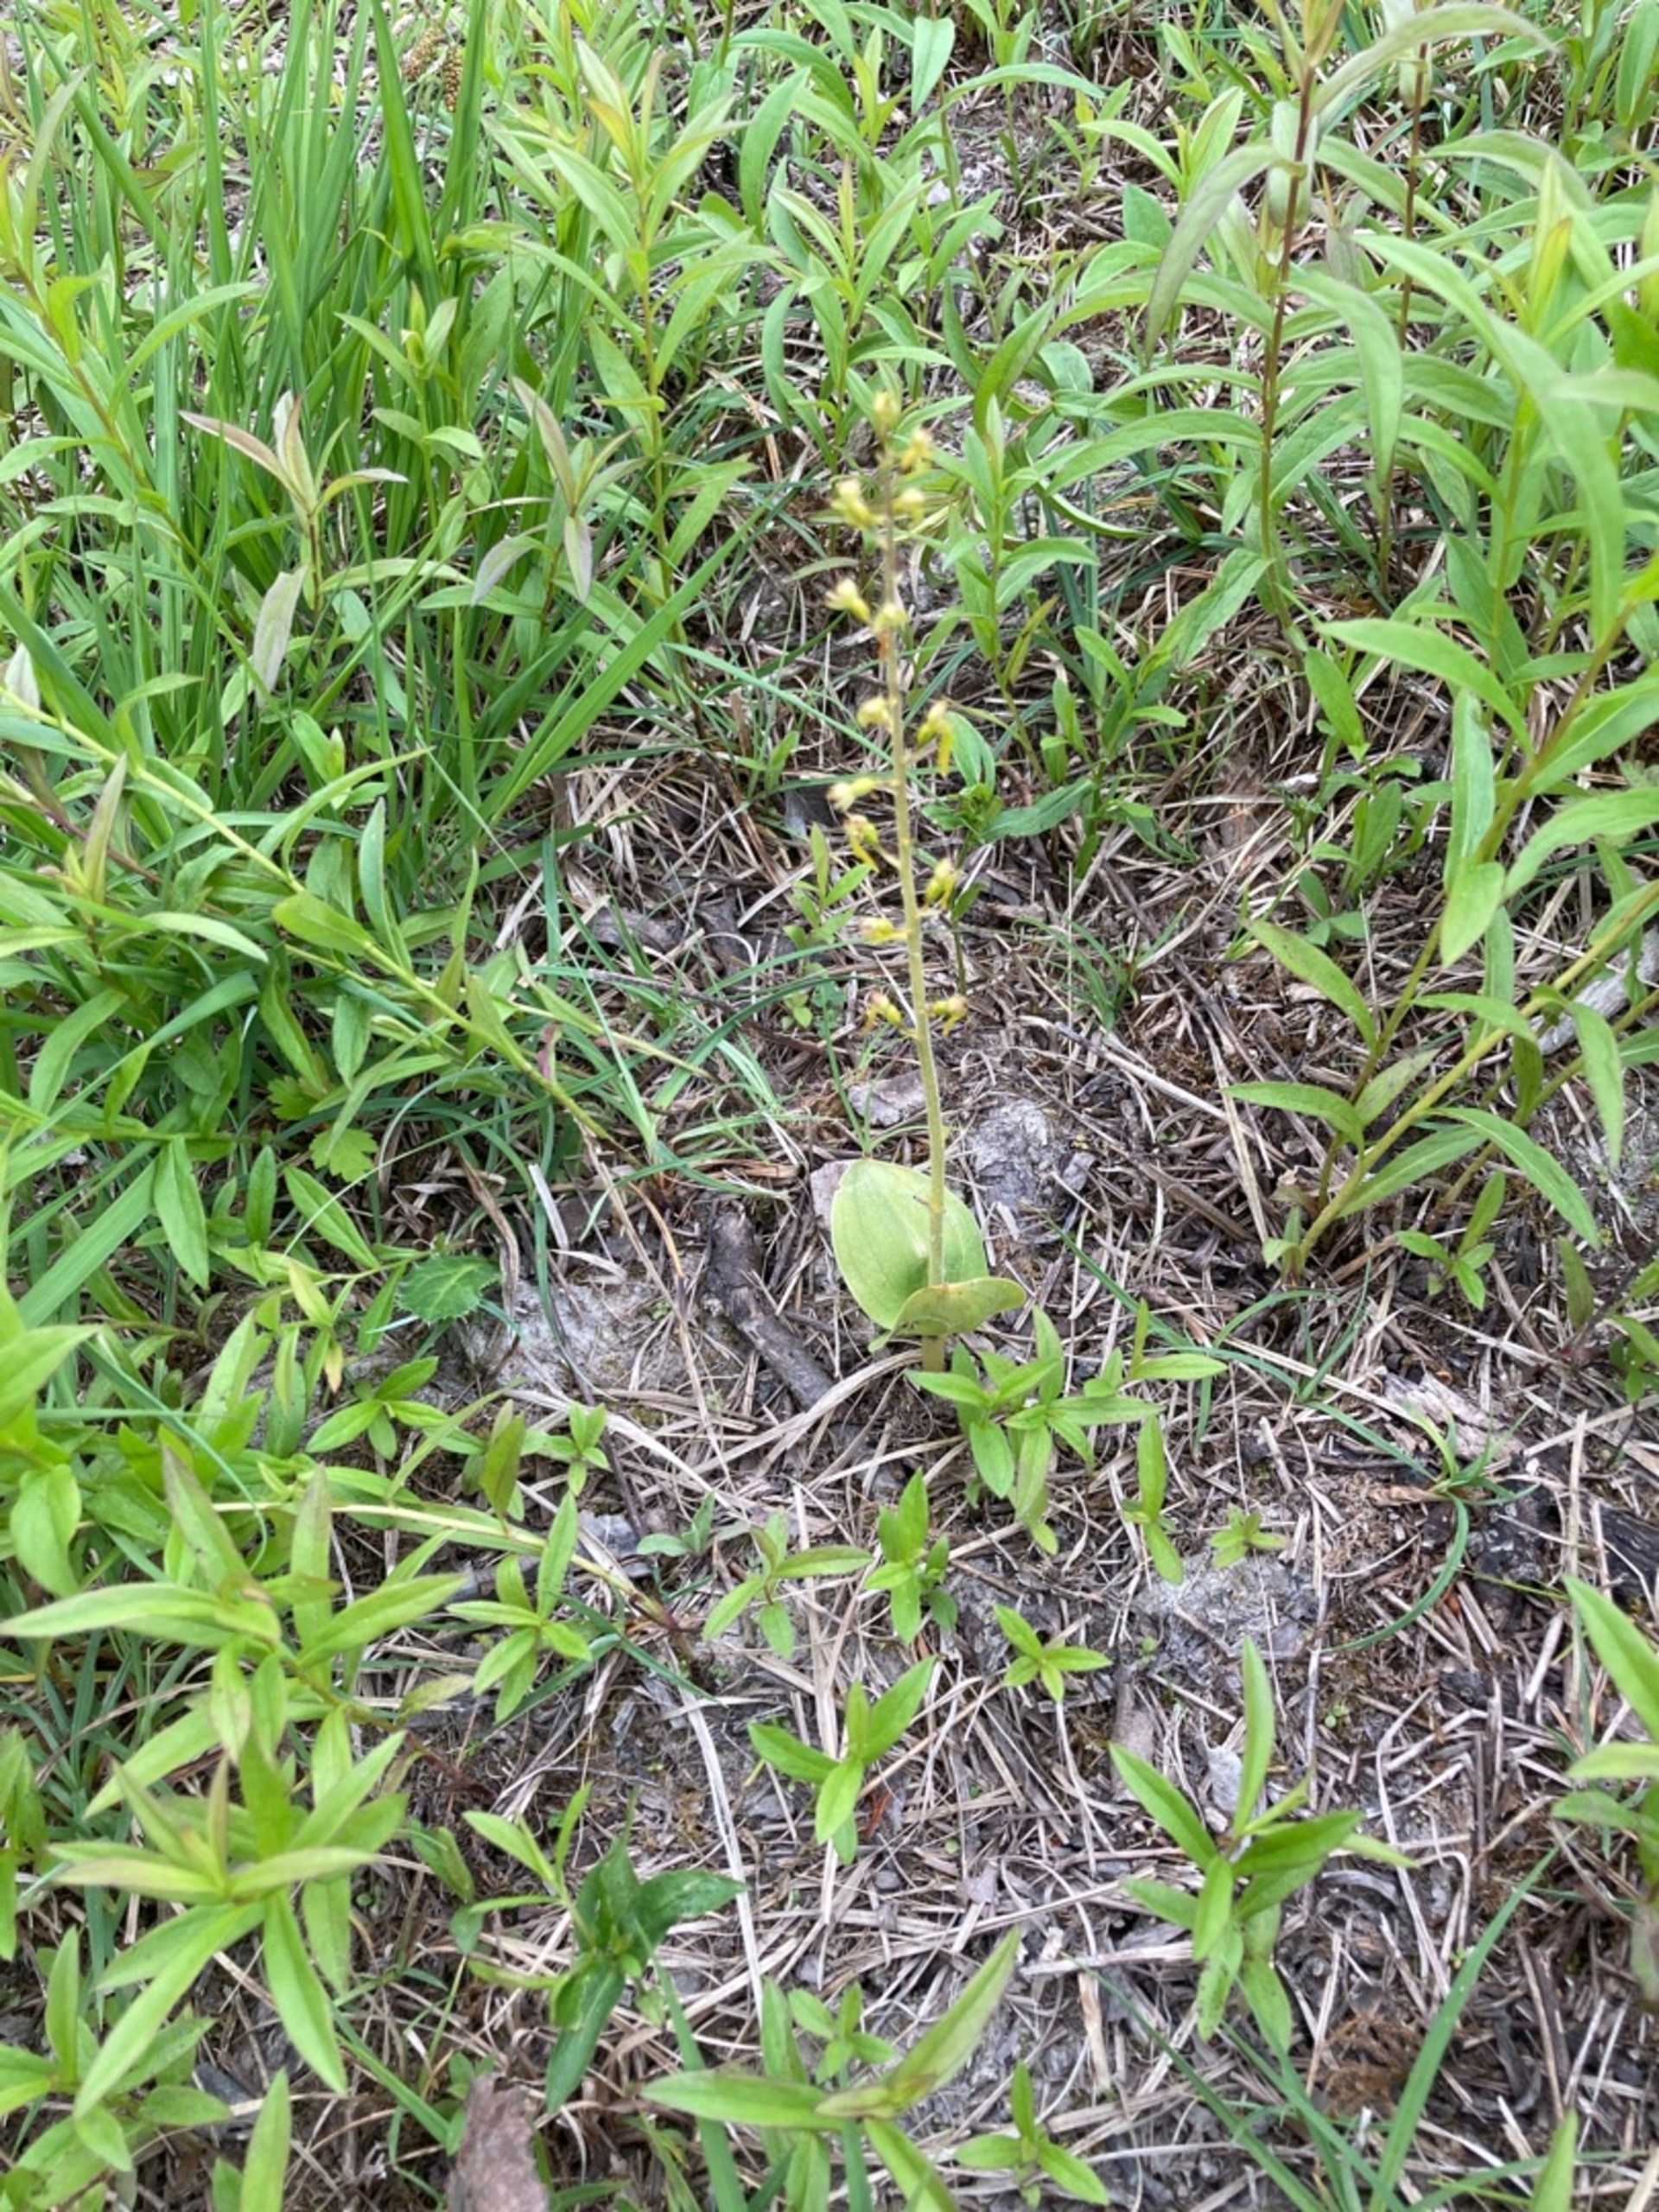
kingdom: Plantae
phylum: Tracheophyta
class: Liliopsida
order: Asparagales
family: Orchidaceae
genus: Neottia
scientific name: Neottia ovata
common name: Ægbladet fliglæbe
